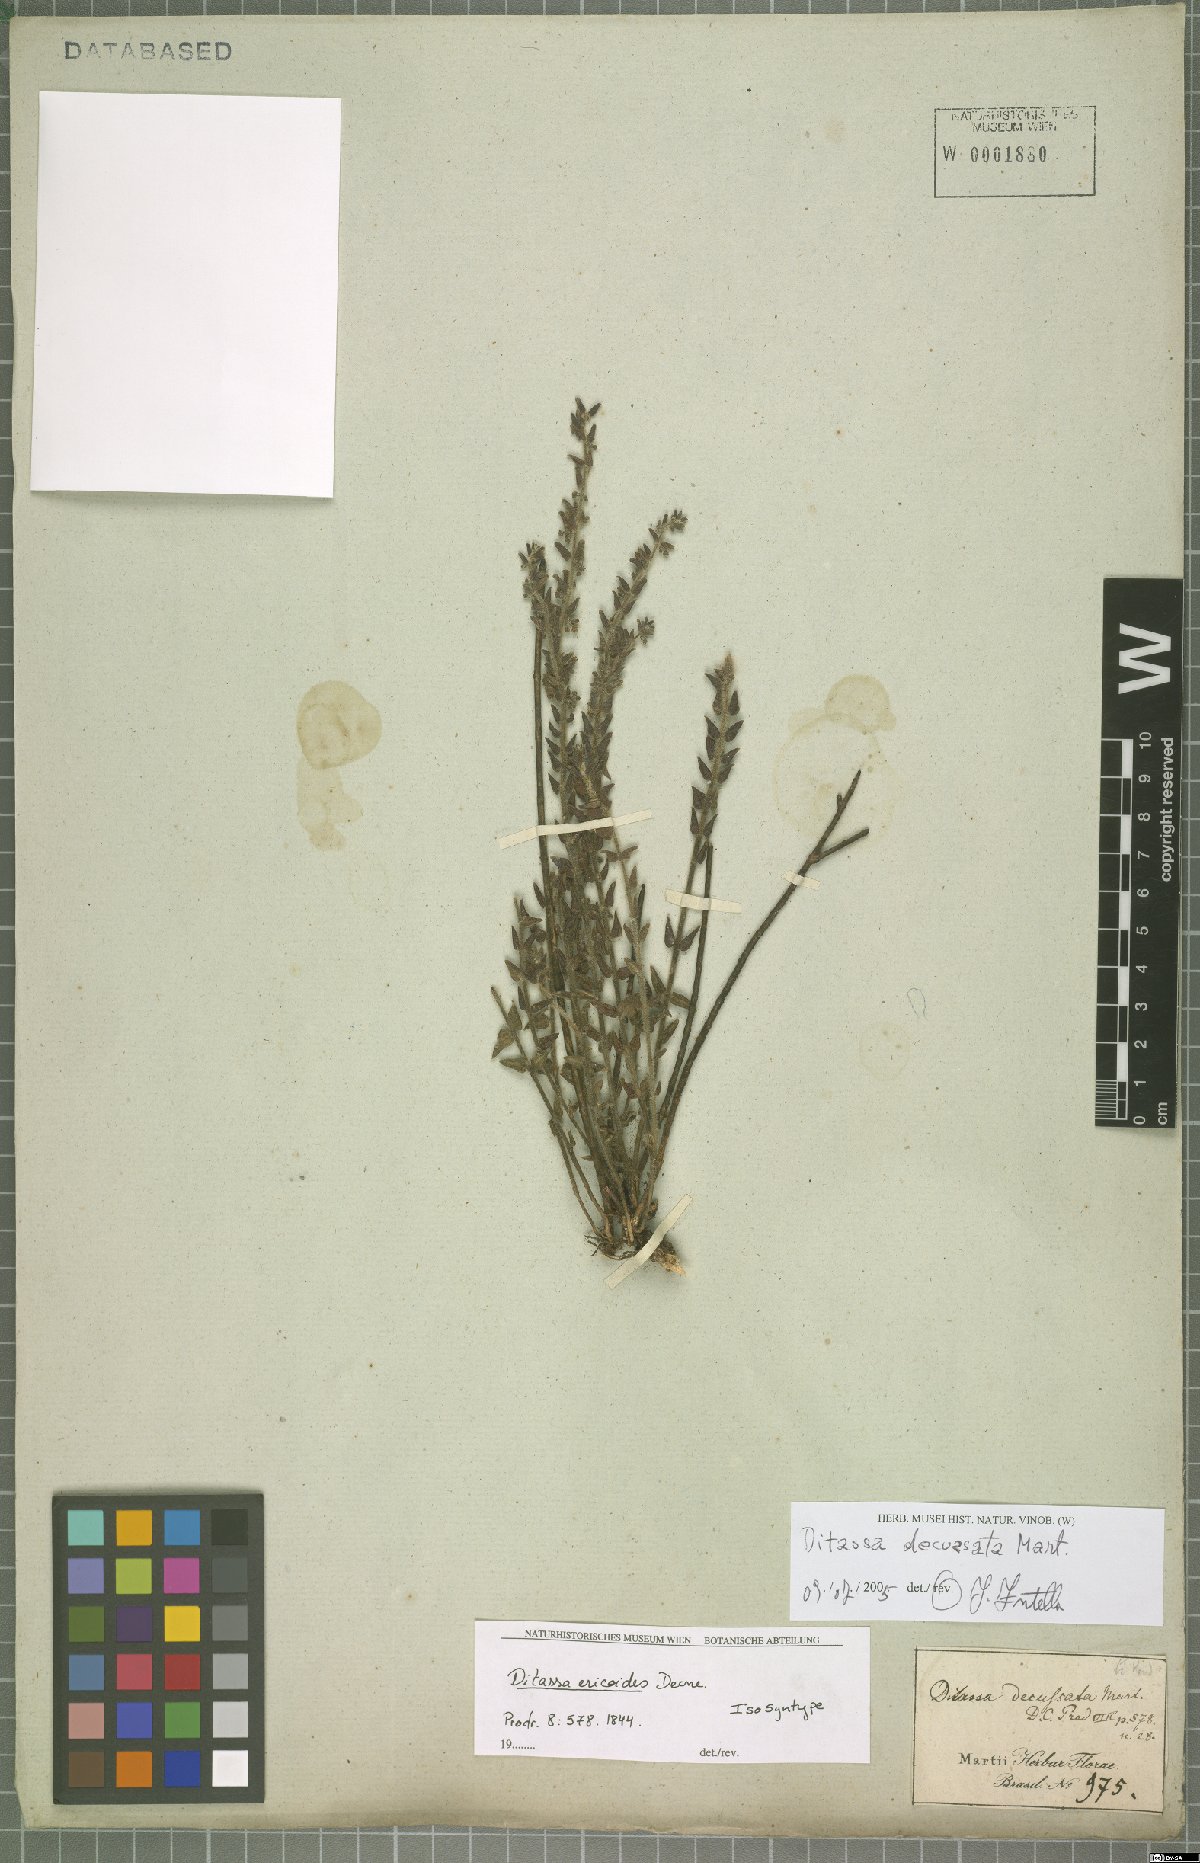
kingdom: Plantae
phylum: Tracheophyta
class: Magnoliopsida
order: Gentianales
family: Apocynaceae
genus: Minaria
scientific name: Minaria decussata
